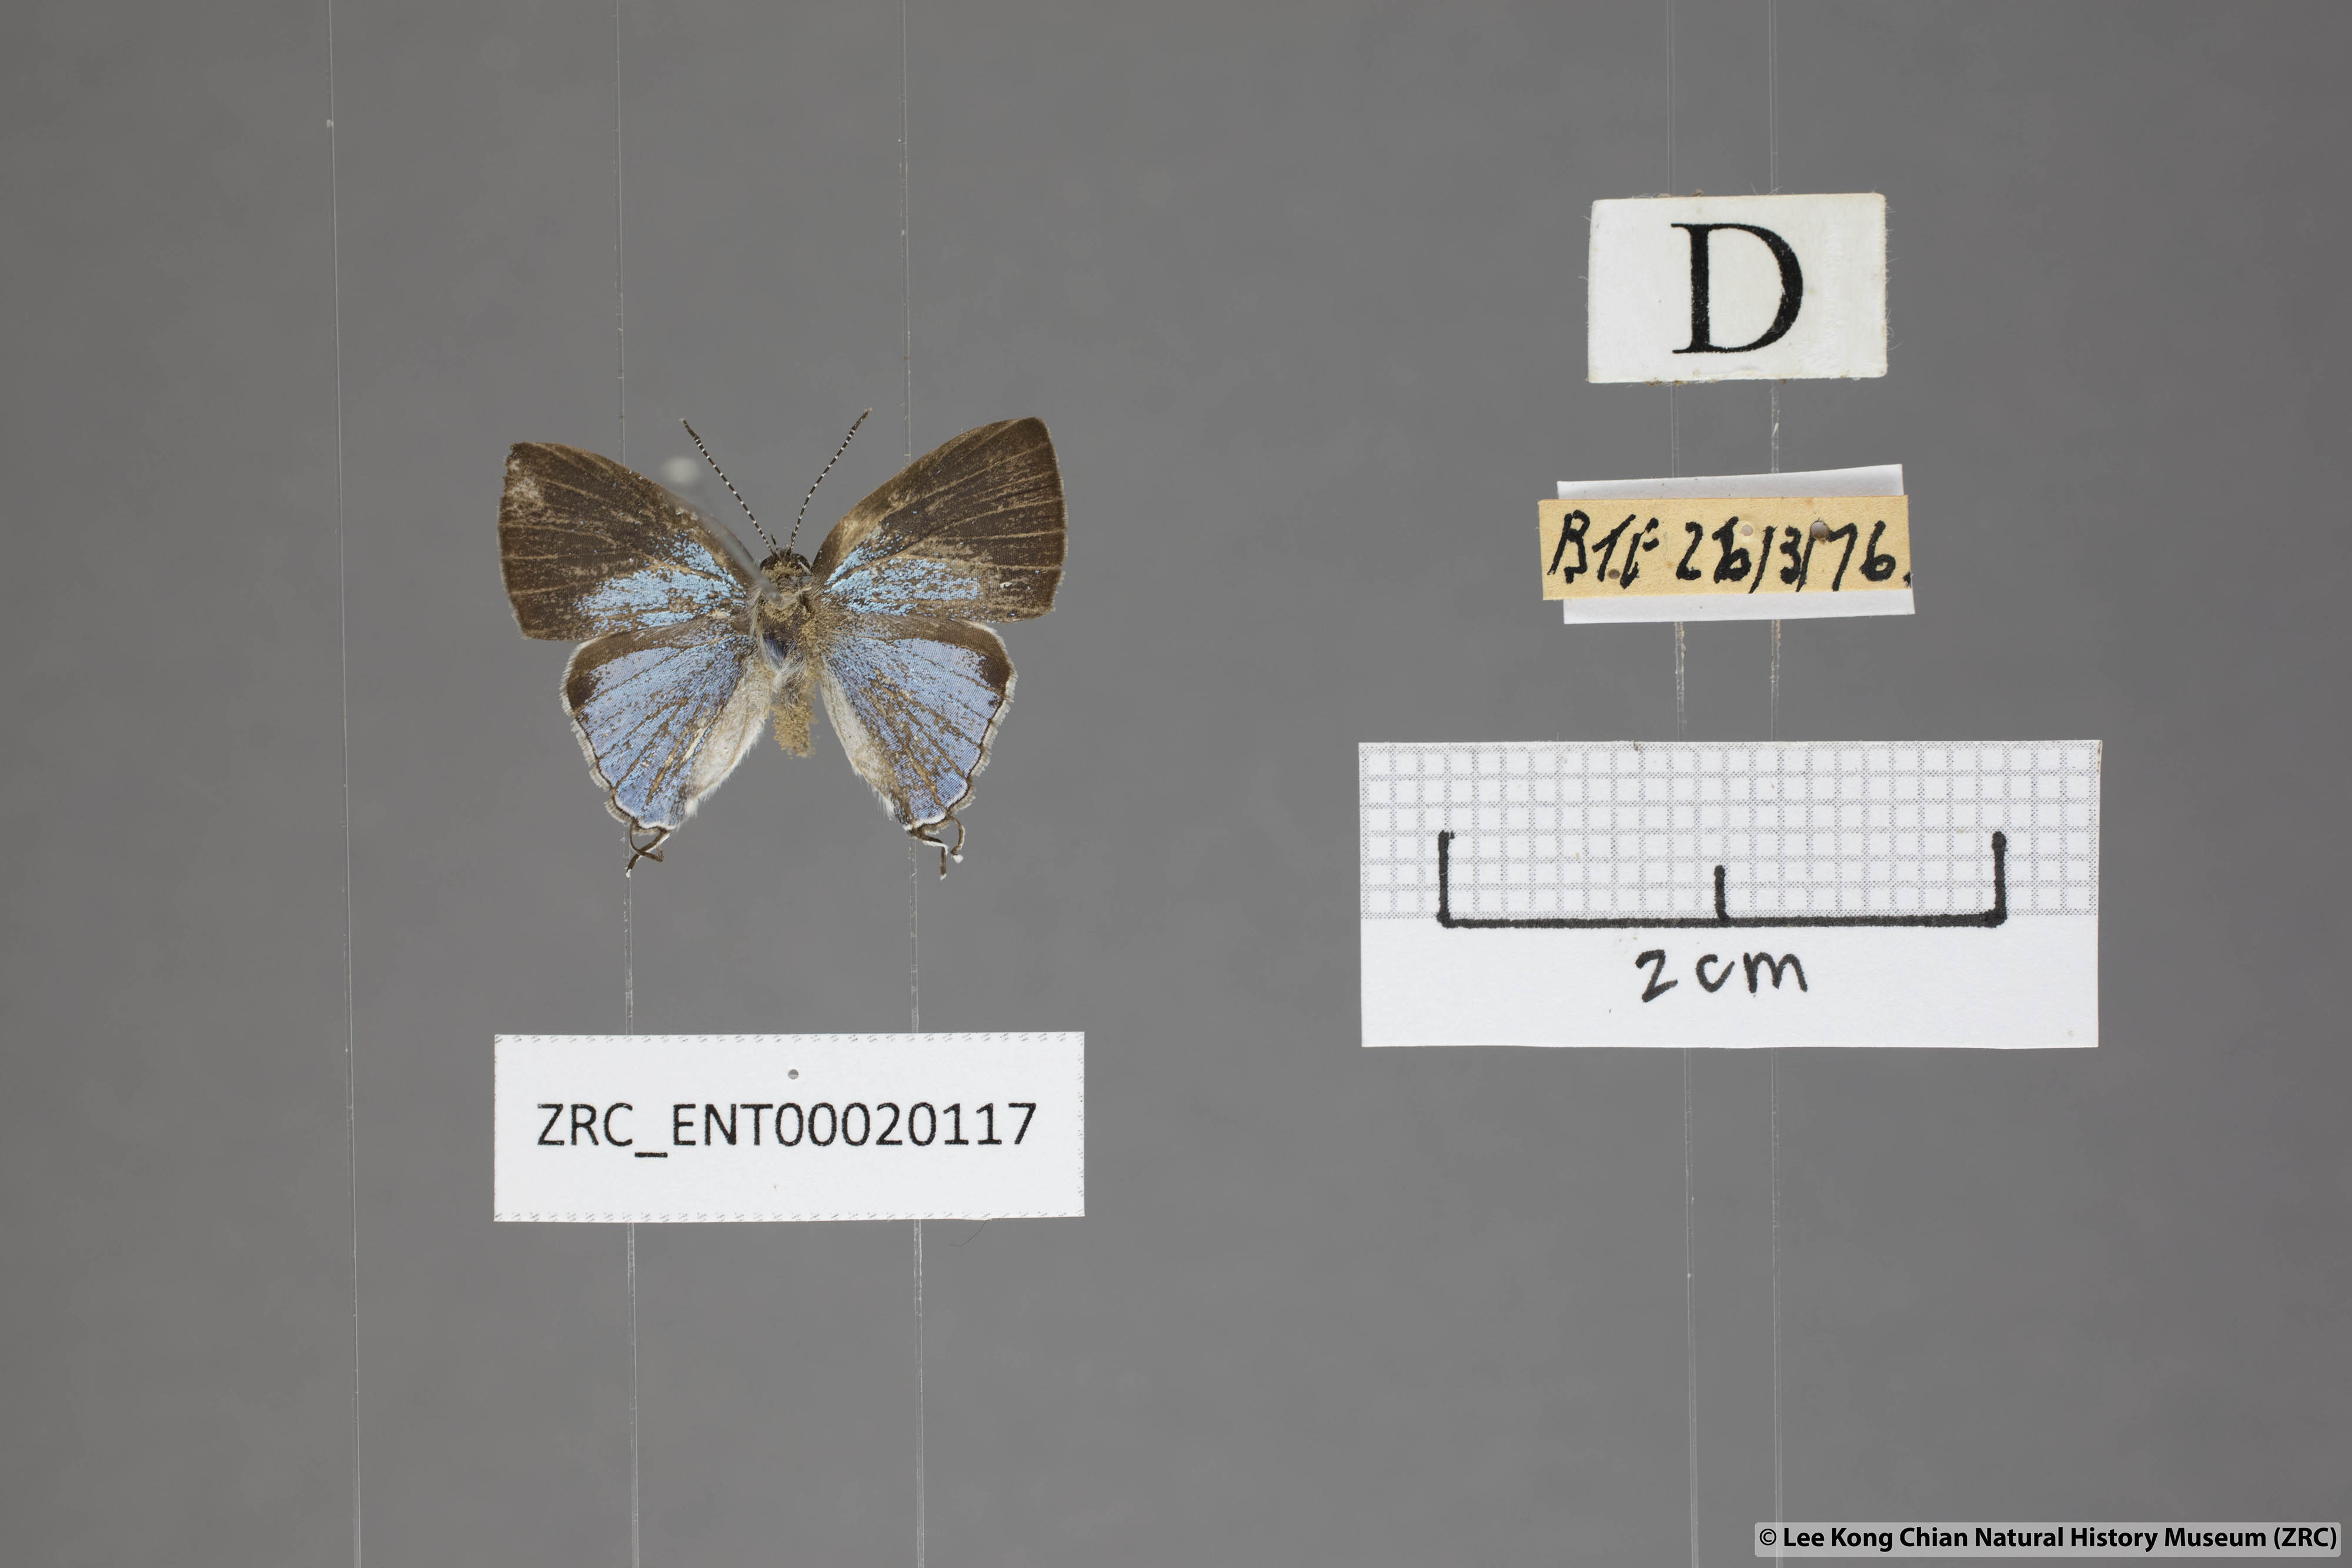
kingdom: Animalia
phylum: Arthropoda
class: Insecta
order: Lepidoptera
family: Lycaenidae
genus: Chliaria
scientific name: Chliaria othona
